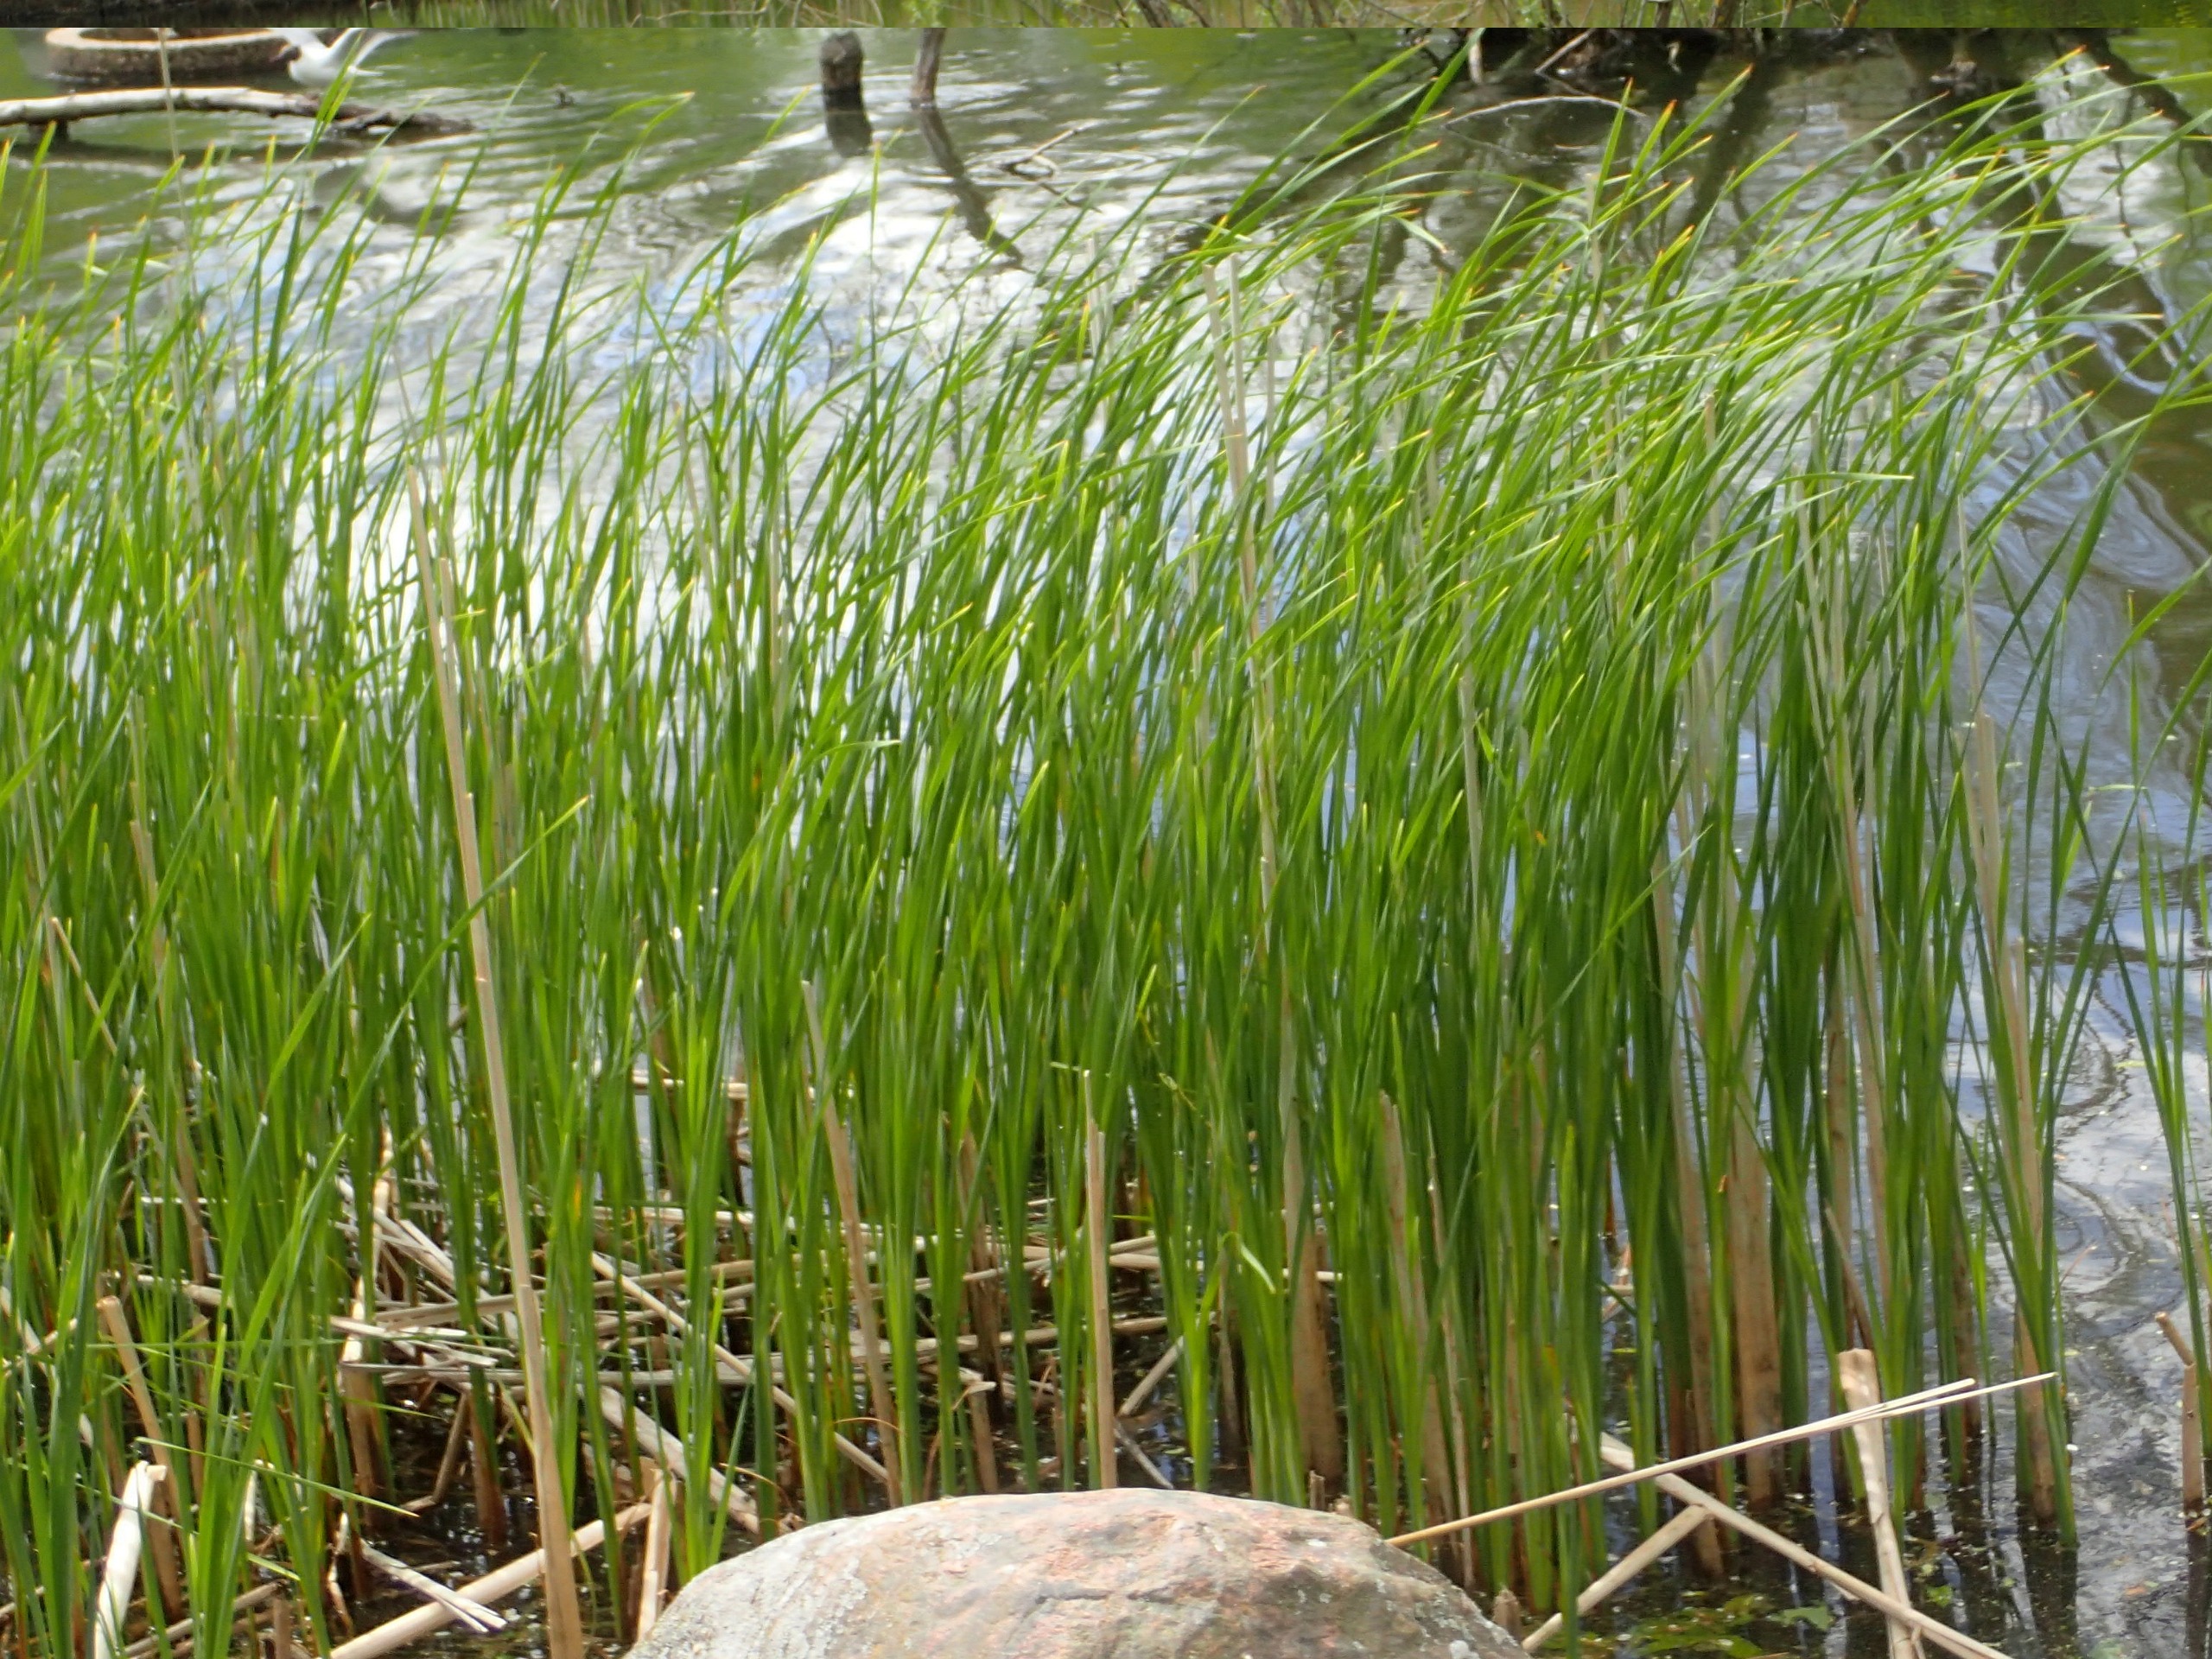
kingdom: Plantae
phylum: Tracheophyta
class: Liliopsida
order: Poales
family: Typhaceae
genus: Typha
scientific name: Typha angustifolia
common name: Smalbladet dunhammer
